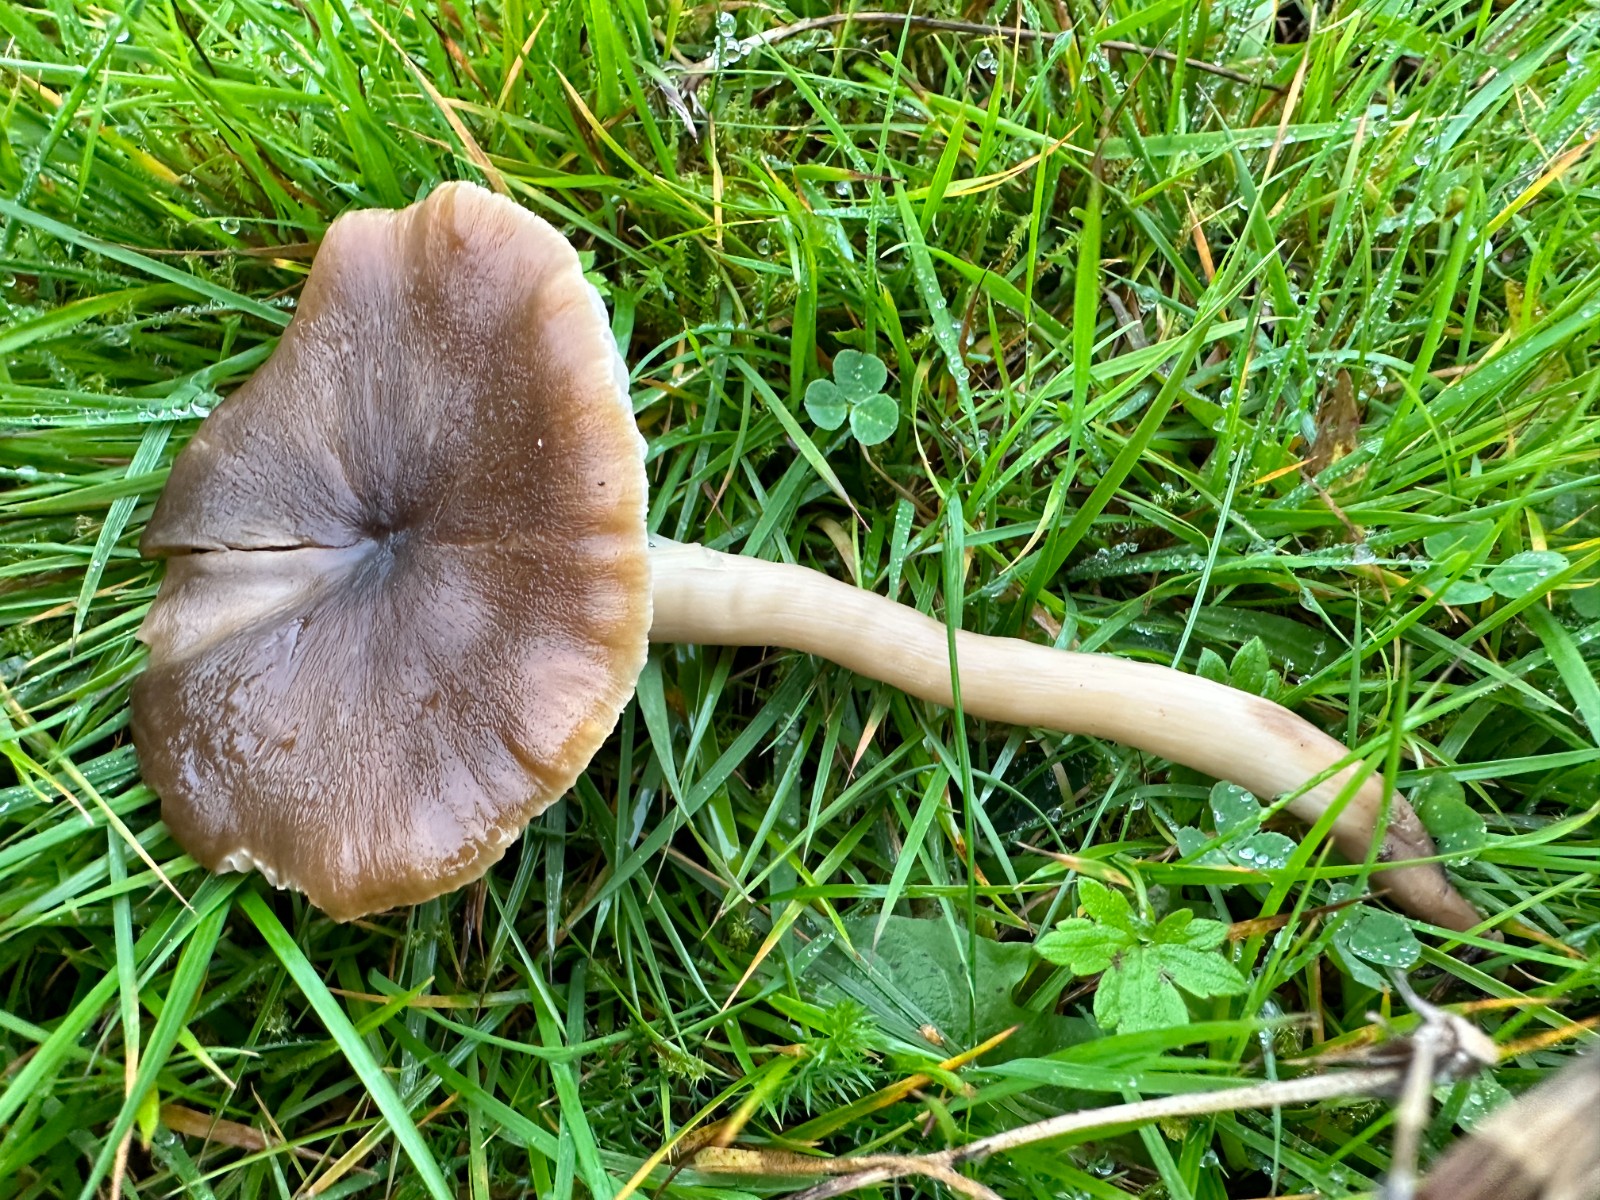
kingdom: Fungi
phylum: Basidiomycota
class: Agaricomycetes
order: Agaricales
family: Hygrophoraceae
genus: Neohygrocybe
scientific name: Neohygrocybe nitrata
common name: stinkende vokshat
